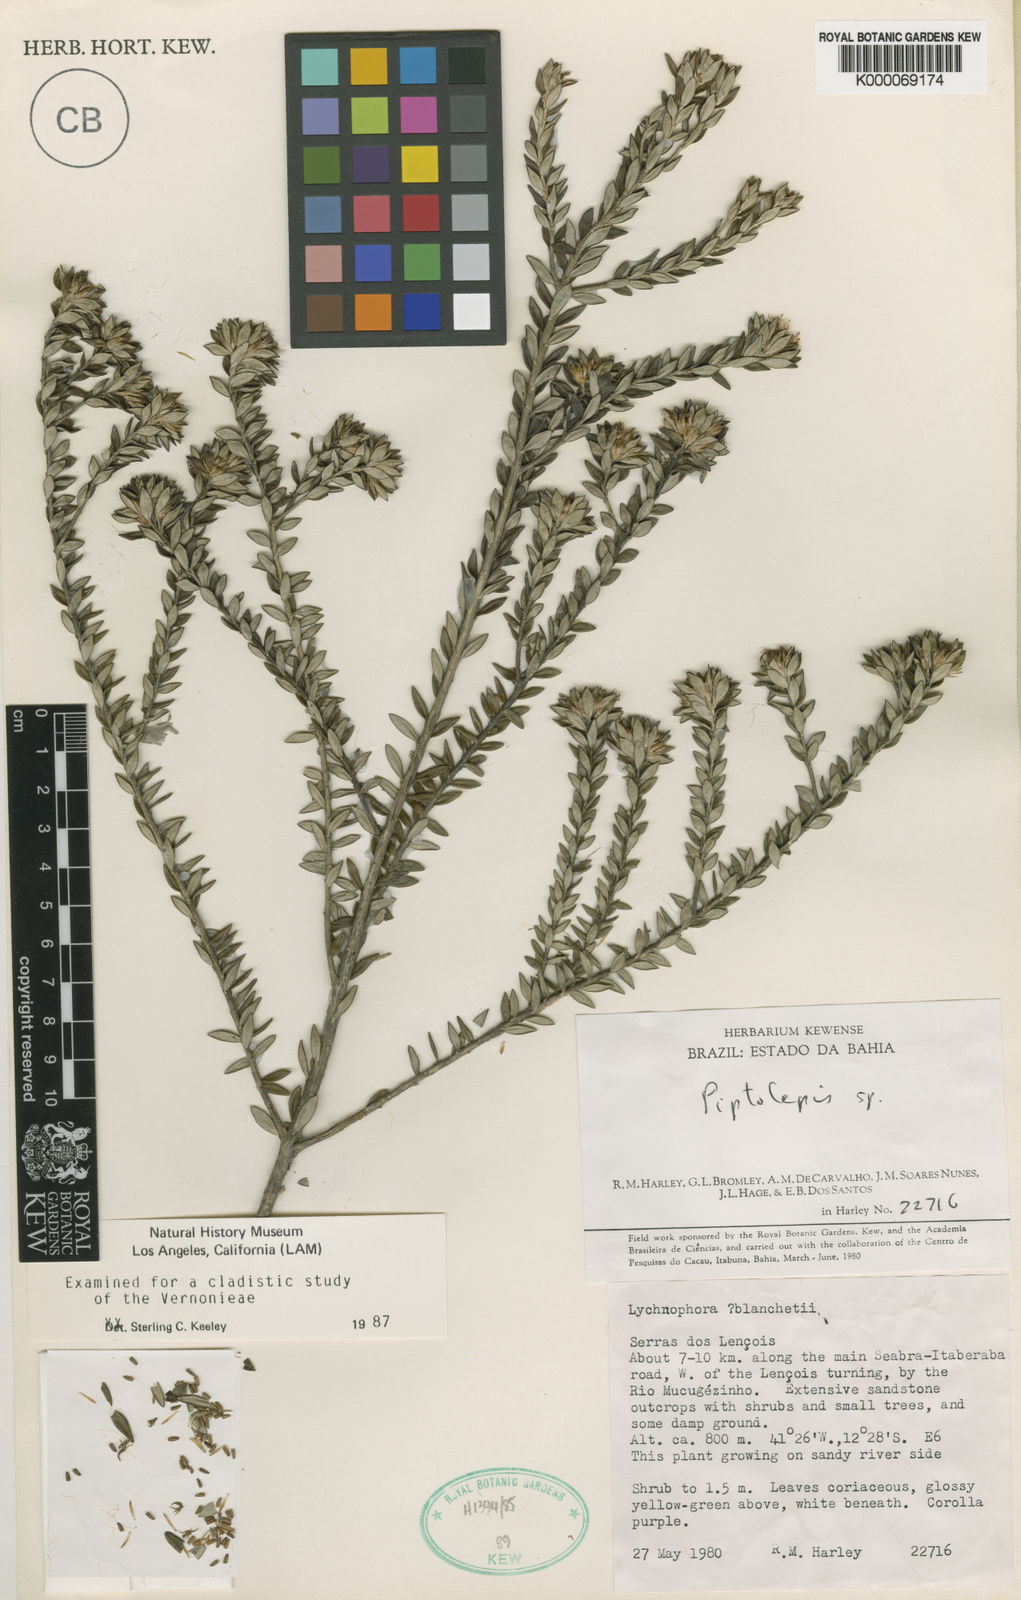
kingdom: Plantae
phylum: Tracheophyta
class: Magnoliopsida
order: Asterales
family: Asteraceae
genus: Lychnophora
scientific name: Lychnophora harleyi
